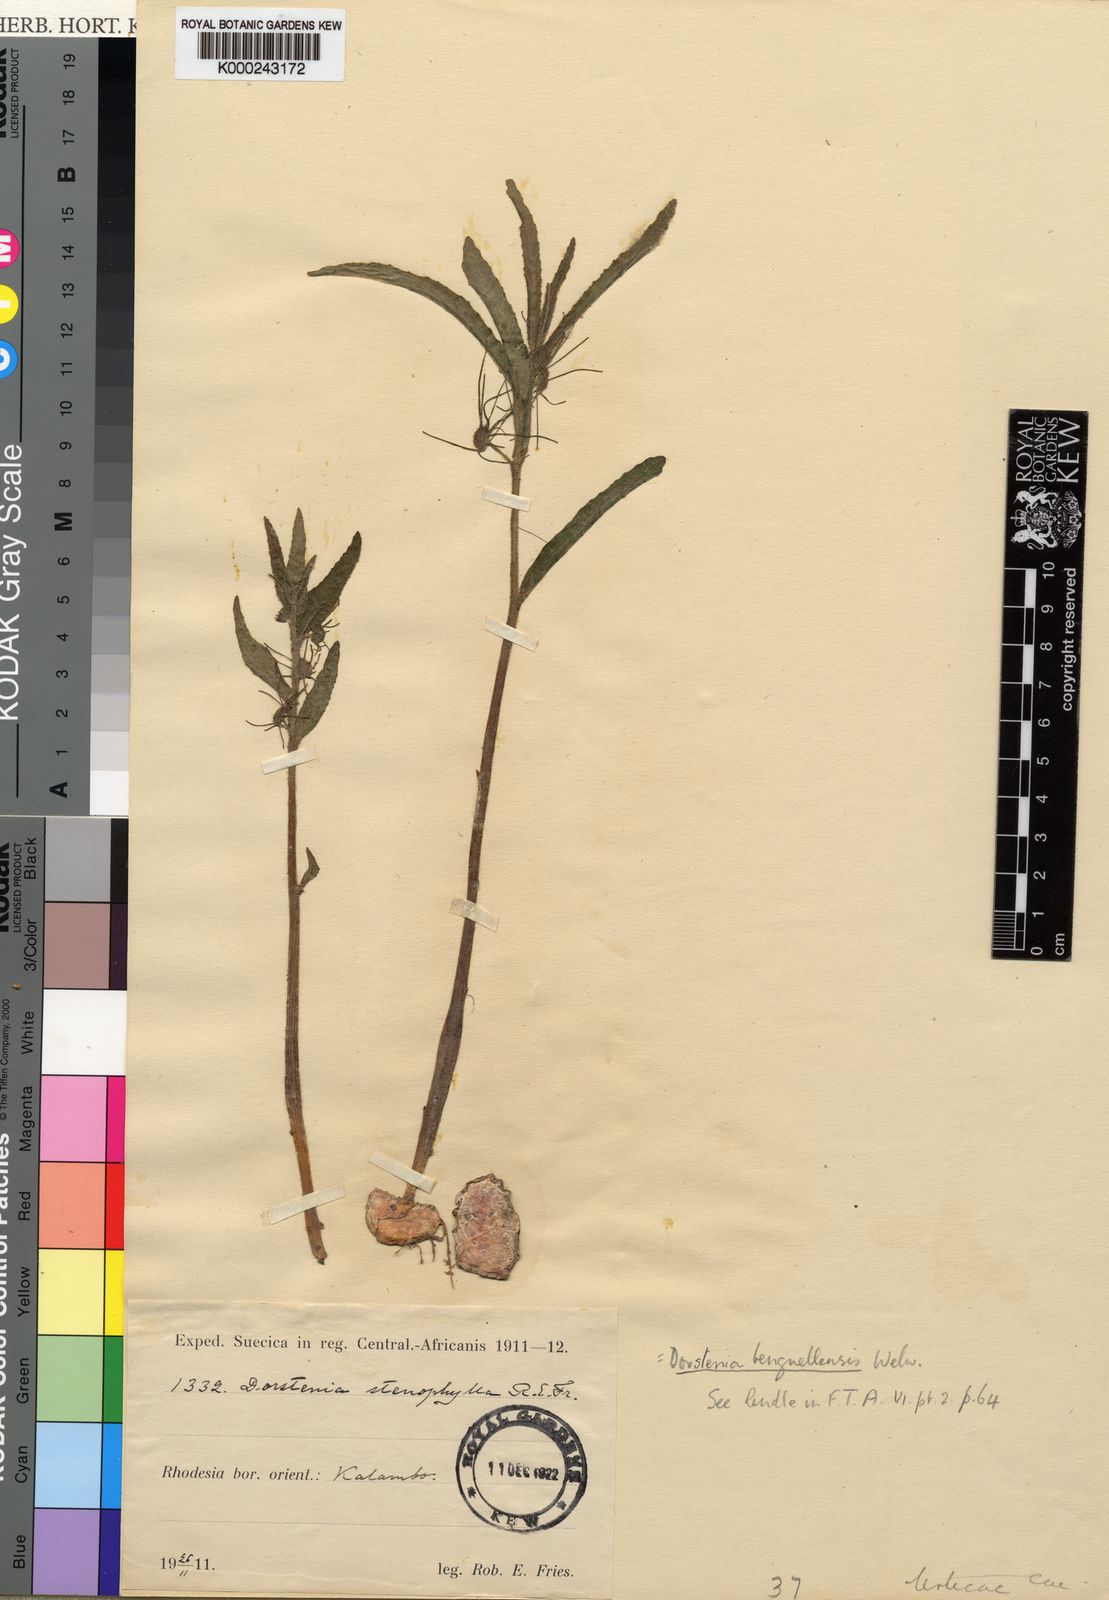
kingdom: Plantae
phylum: Tracheophyta
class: Magnoliopsida
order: Rosales
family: Moraceae
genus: Dorstenia
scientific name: Dorstenia benguellensis
